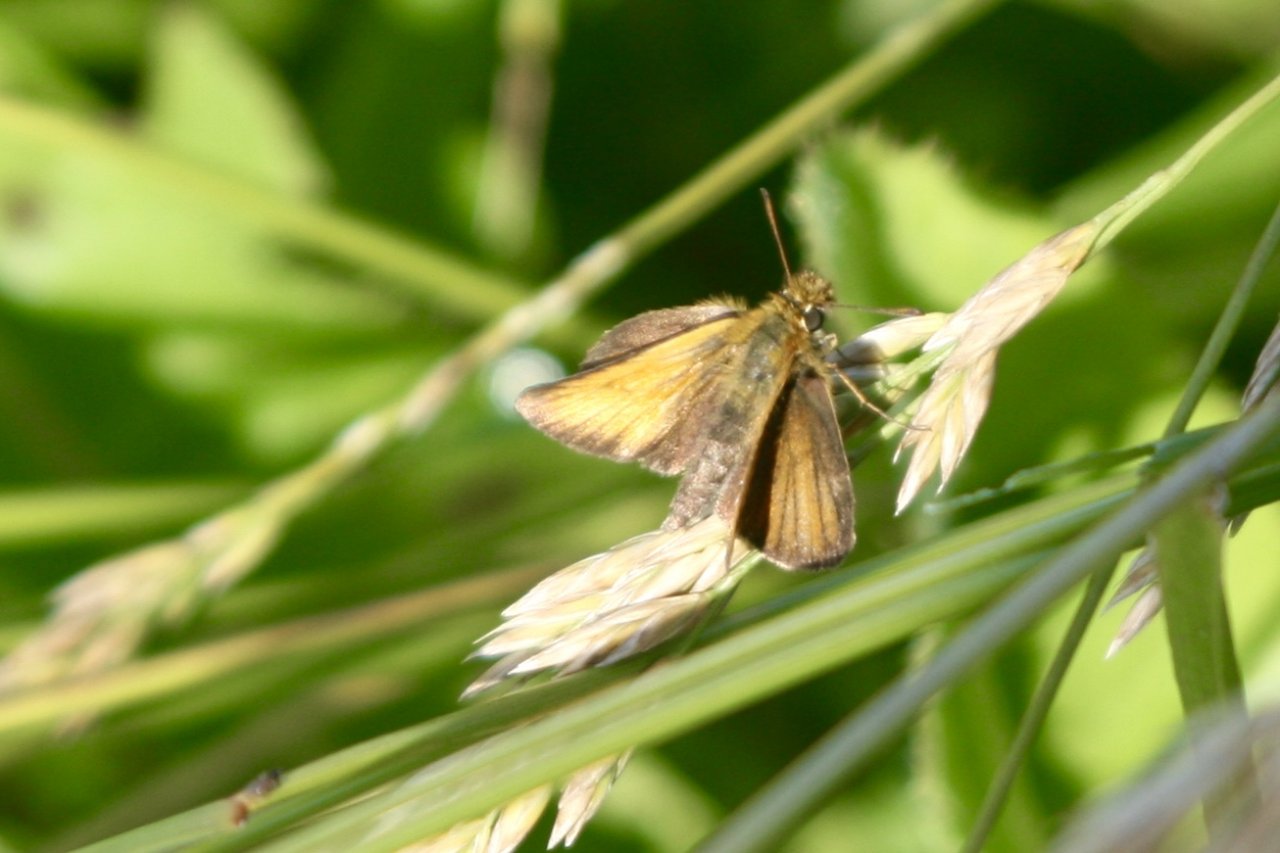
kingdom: Animalia
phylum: Arthropoda
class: Insecta
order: Lepidoptera
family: Hesperiidae
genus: Thymelicus
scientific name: Thymelicus lineola
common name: European Skipper
